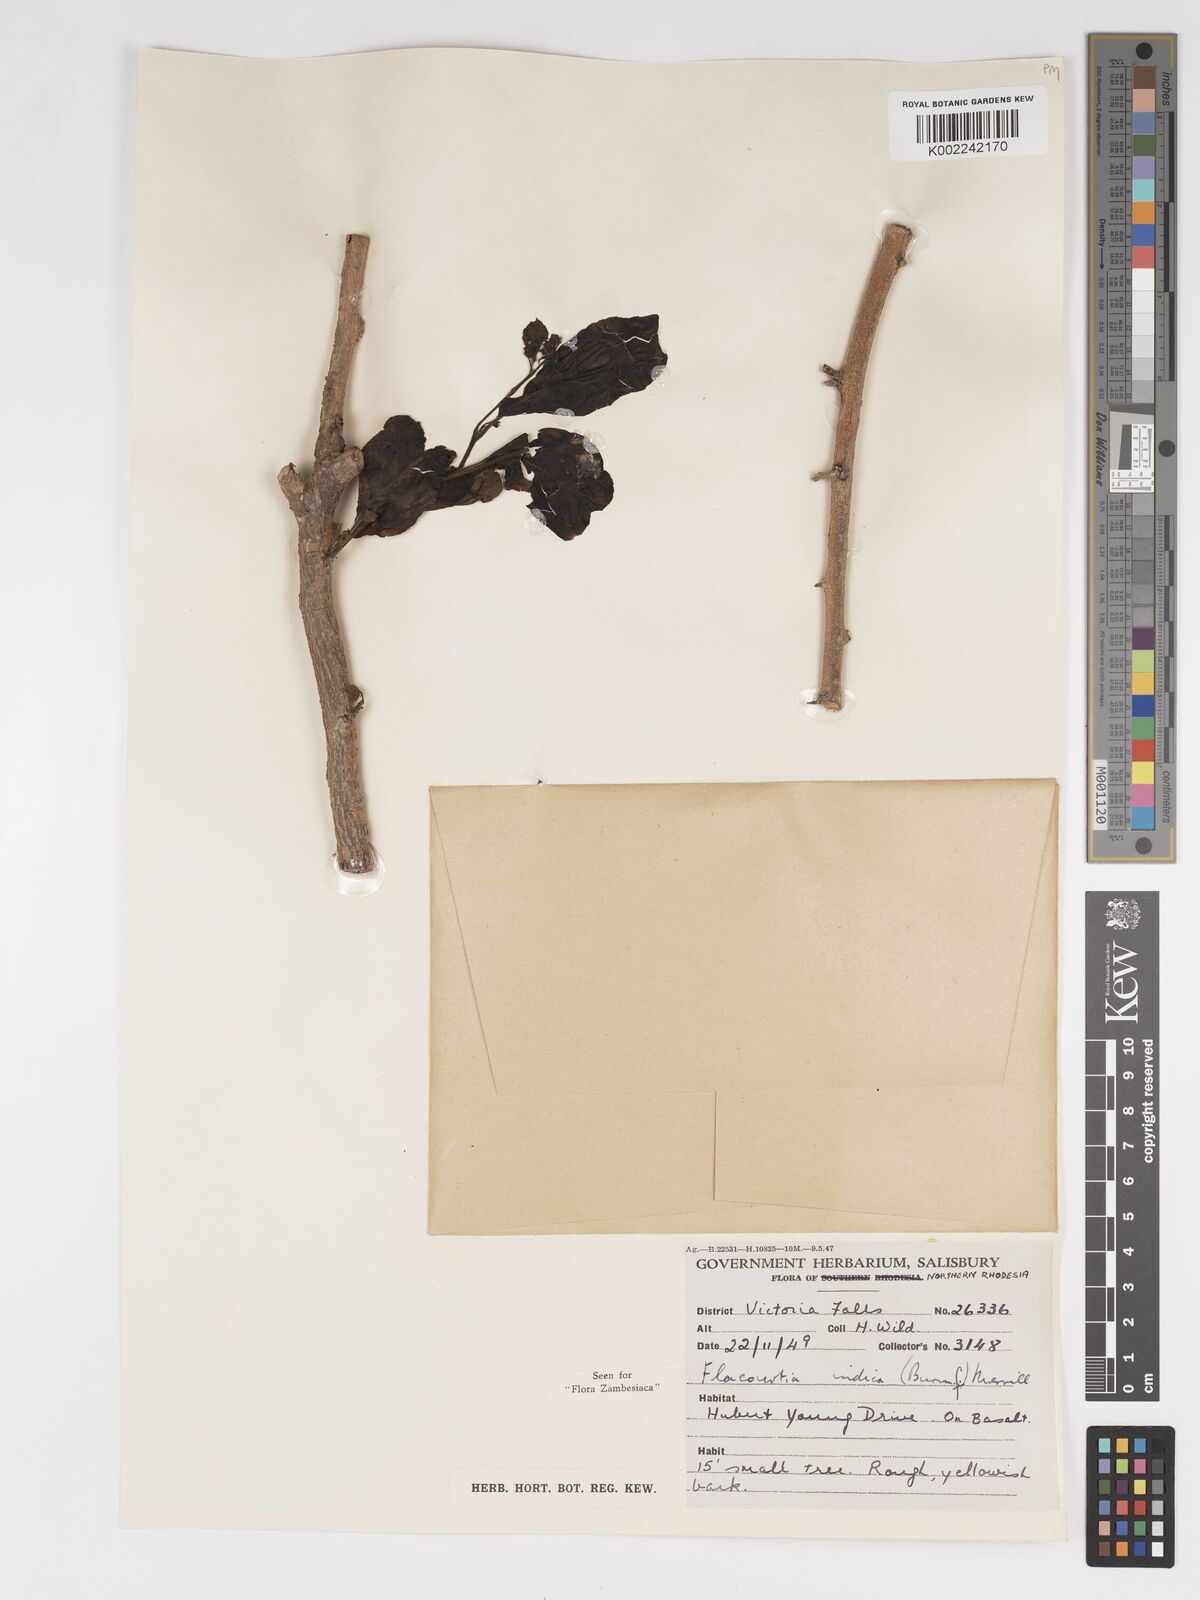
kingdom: Plantae
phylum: Tracheophyta
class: Magnoliopsida
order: Malpighiales
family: Salicaceae
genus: Flacourtia
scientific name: Flacourtia indica
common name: Governor's plum
